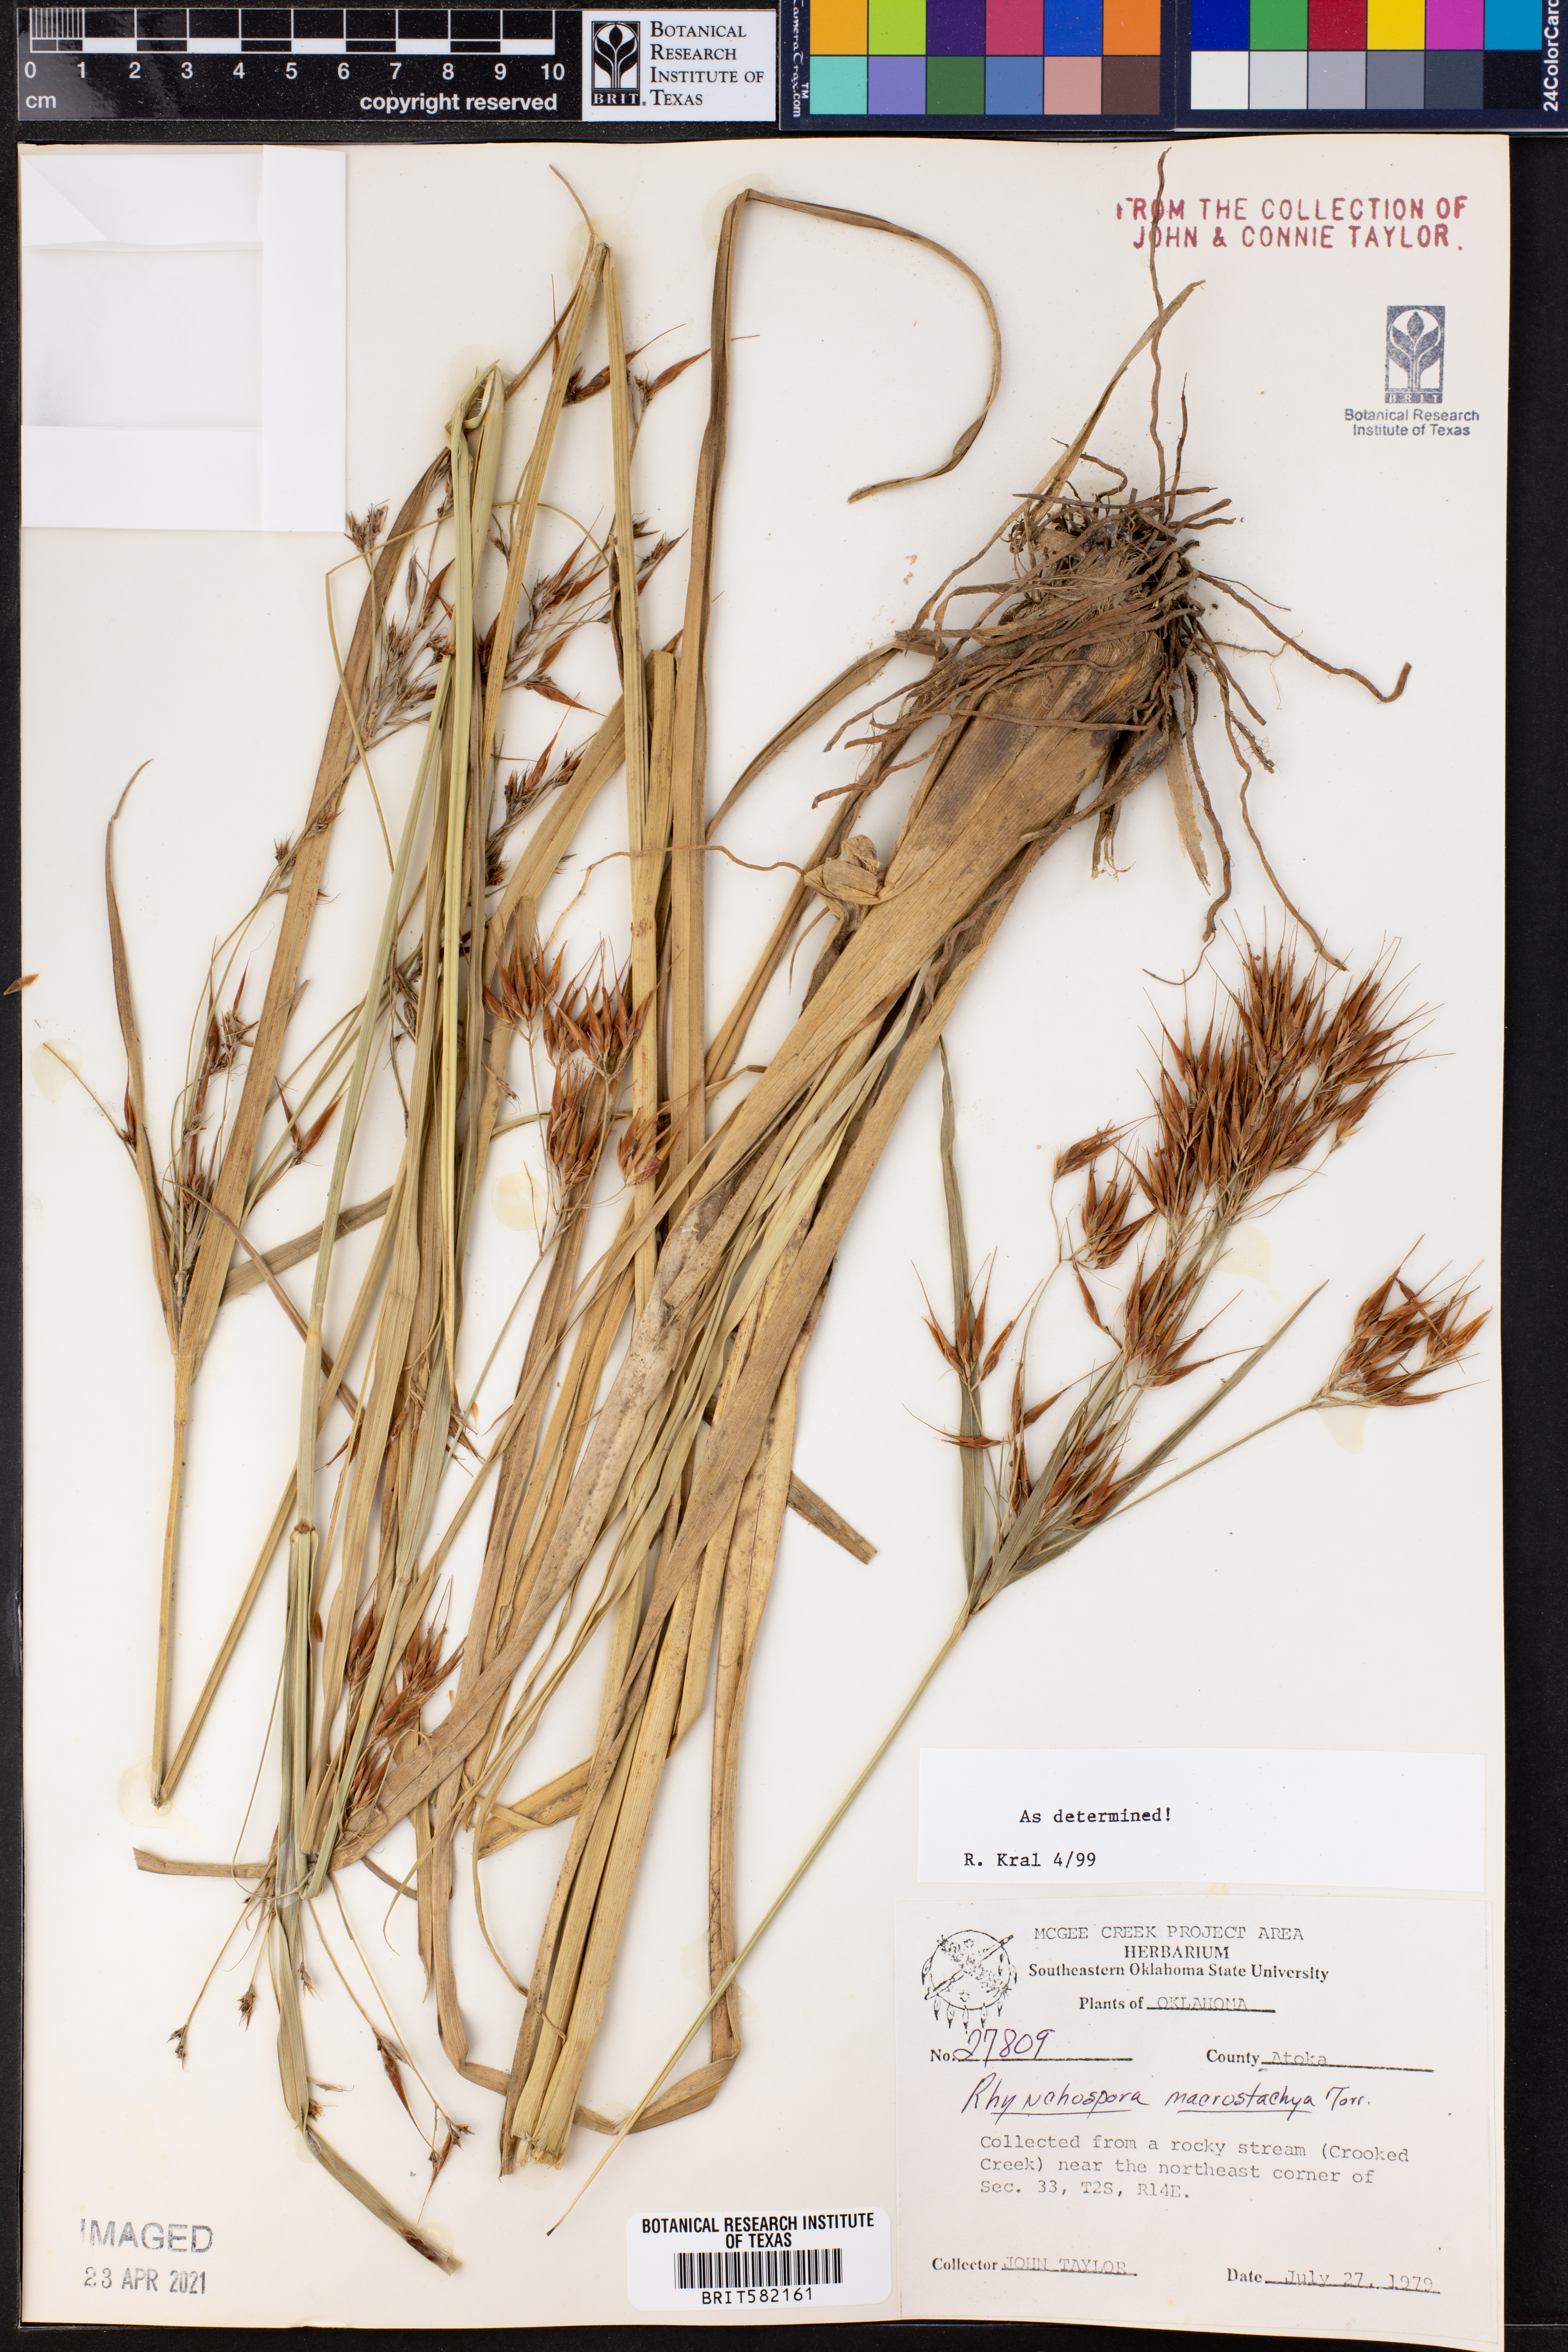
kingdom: Plantae
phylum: Tracheophyta
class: Liliopsida
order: Poales
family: Cyperaceae
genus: Rhynchospora
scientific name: Rhynchospora macrostachya
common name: Tall beakrush
